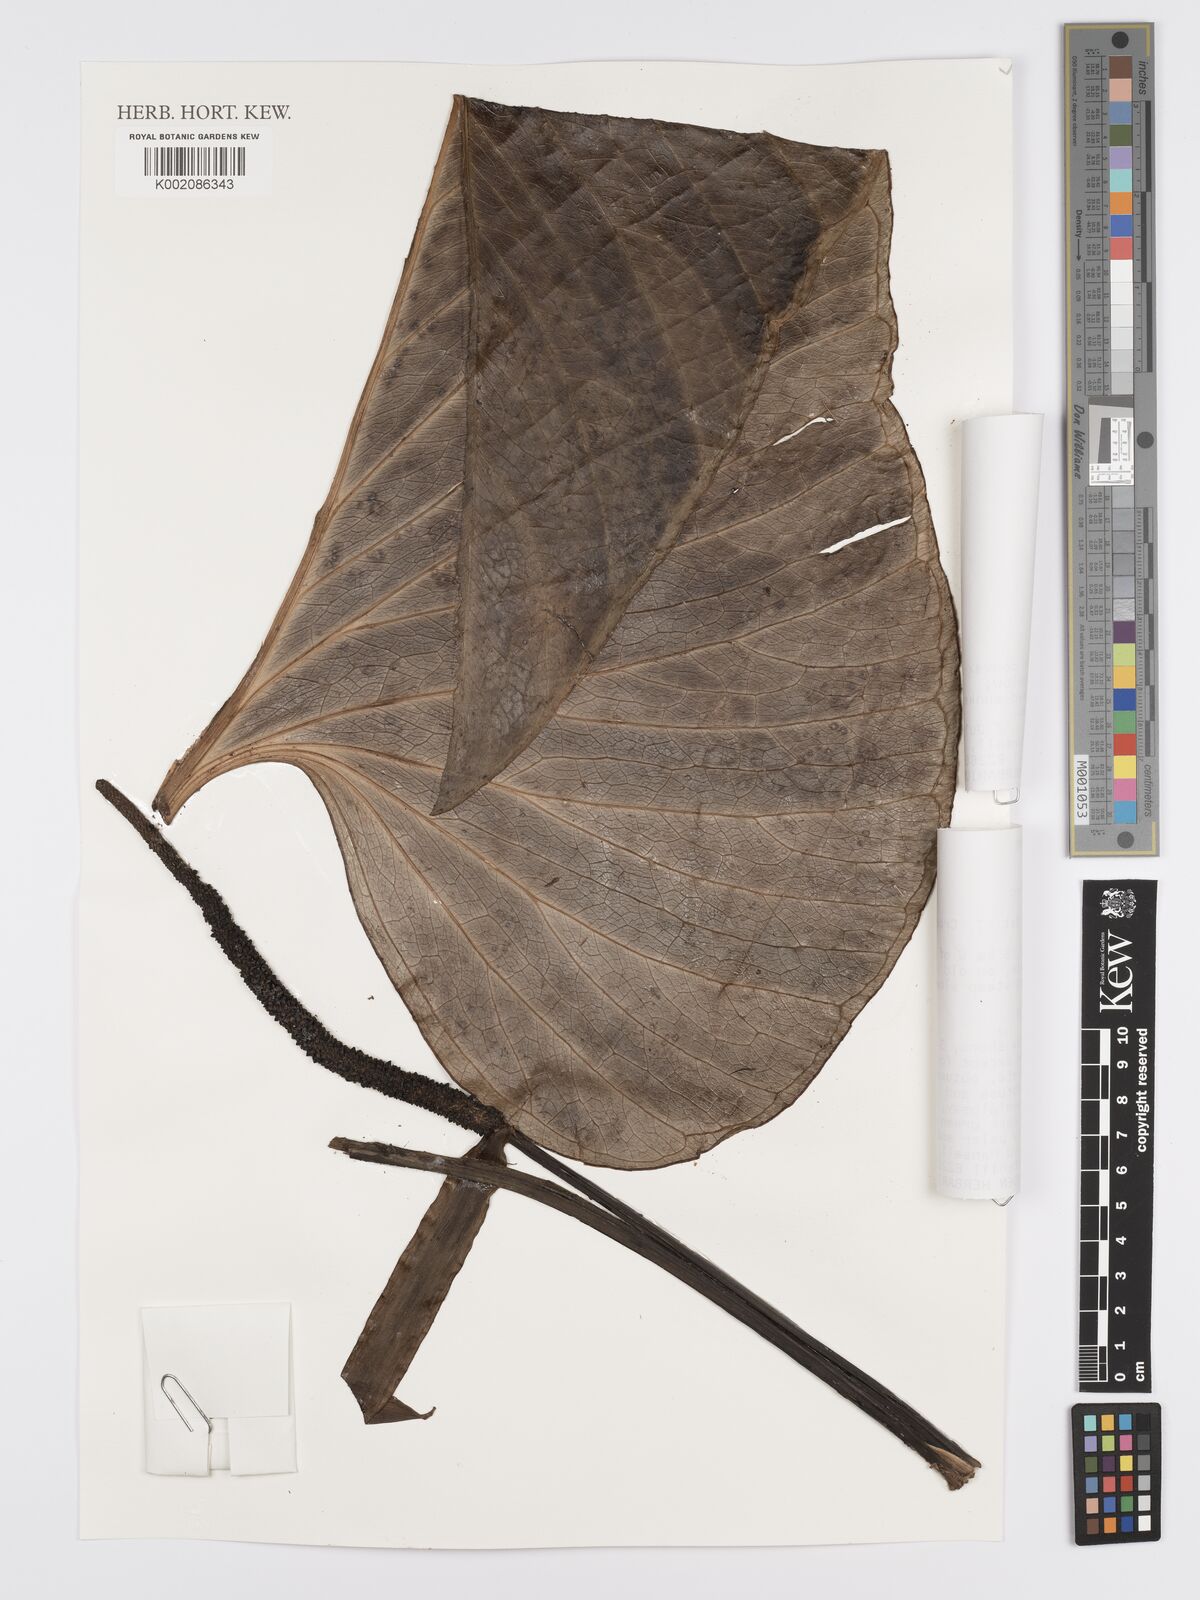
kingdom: Plantae
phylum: Tracheophyta
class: Liliopsida
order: Alismatales
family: Araceae
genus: Anthurium
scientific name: Anthurium lancea
